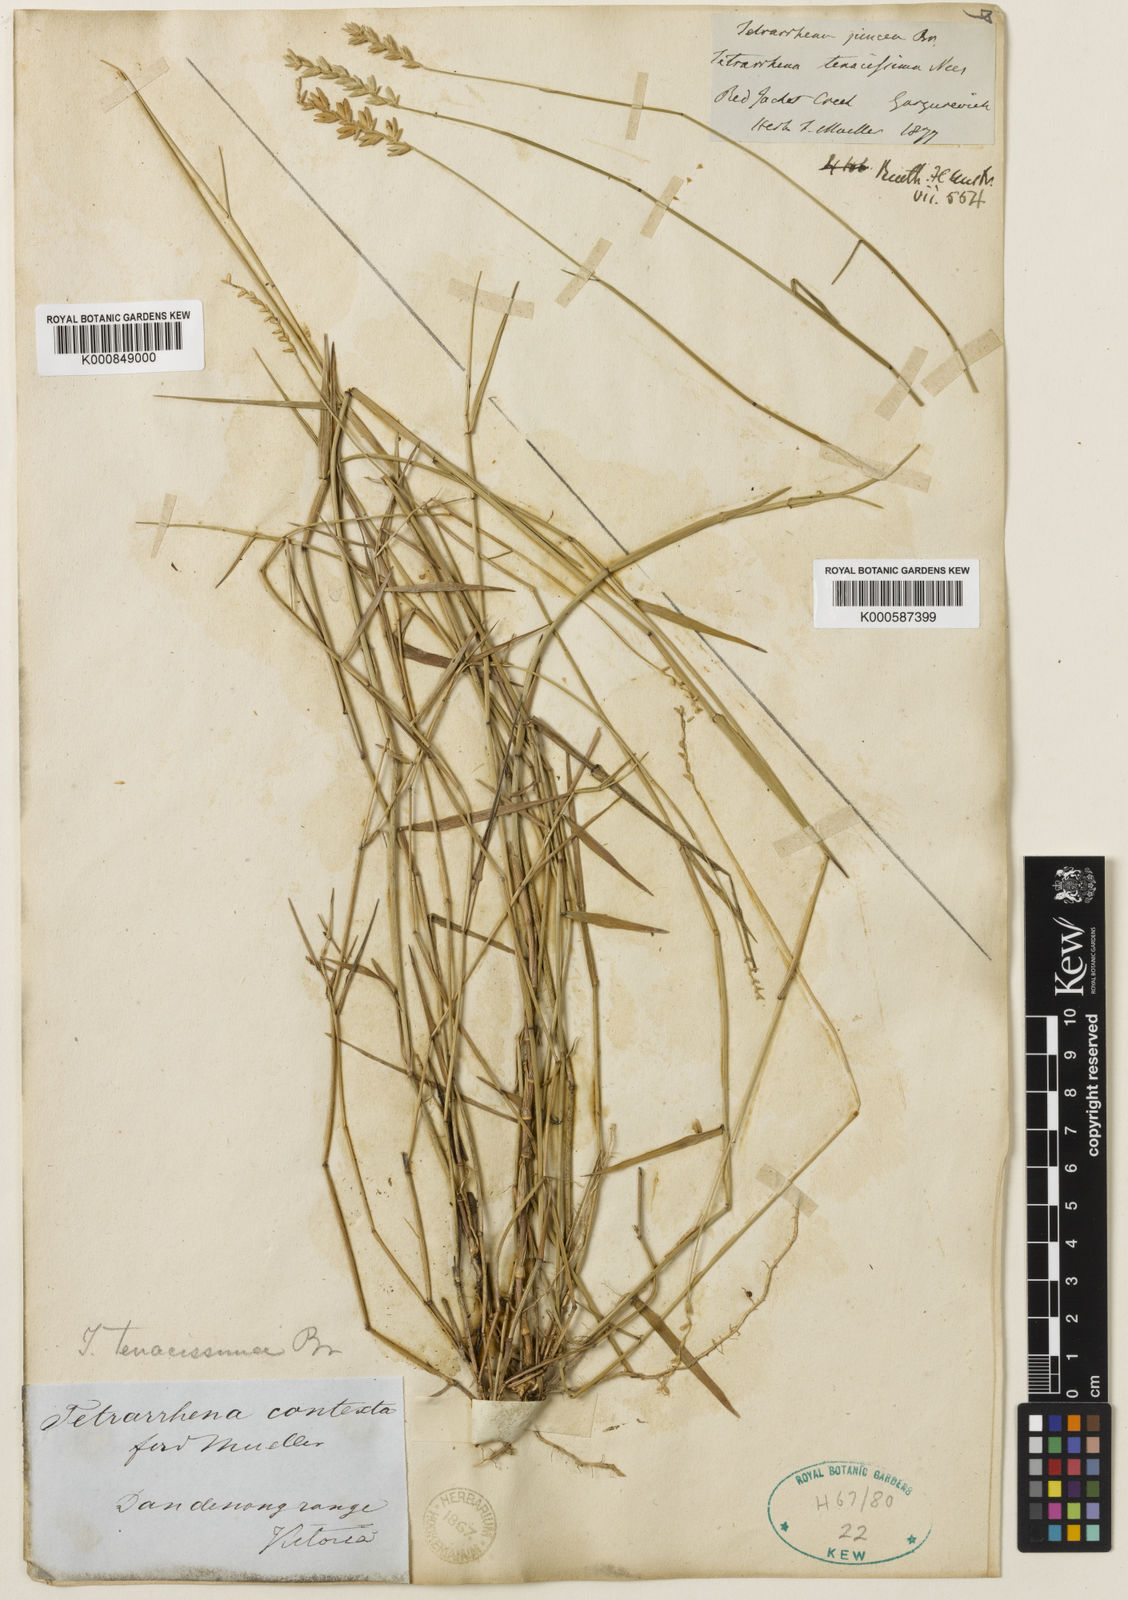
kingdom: Plantae
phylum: Tracheophyta
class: Liliopsida
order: Poales
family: Poaceae
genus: Tetrarrhena
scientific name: Tetrarrhena juncea
